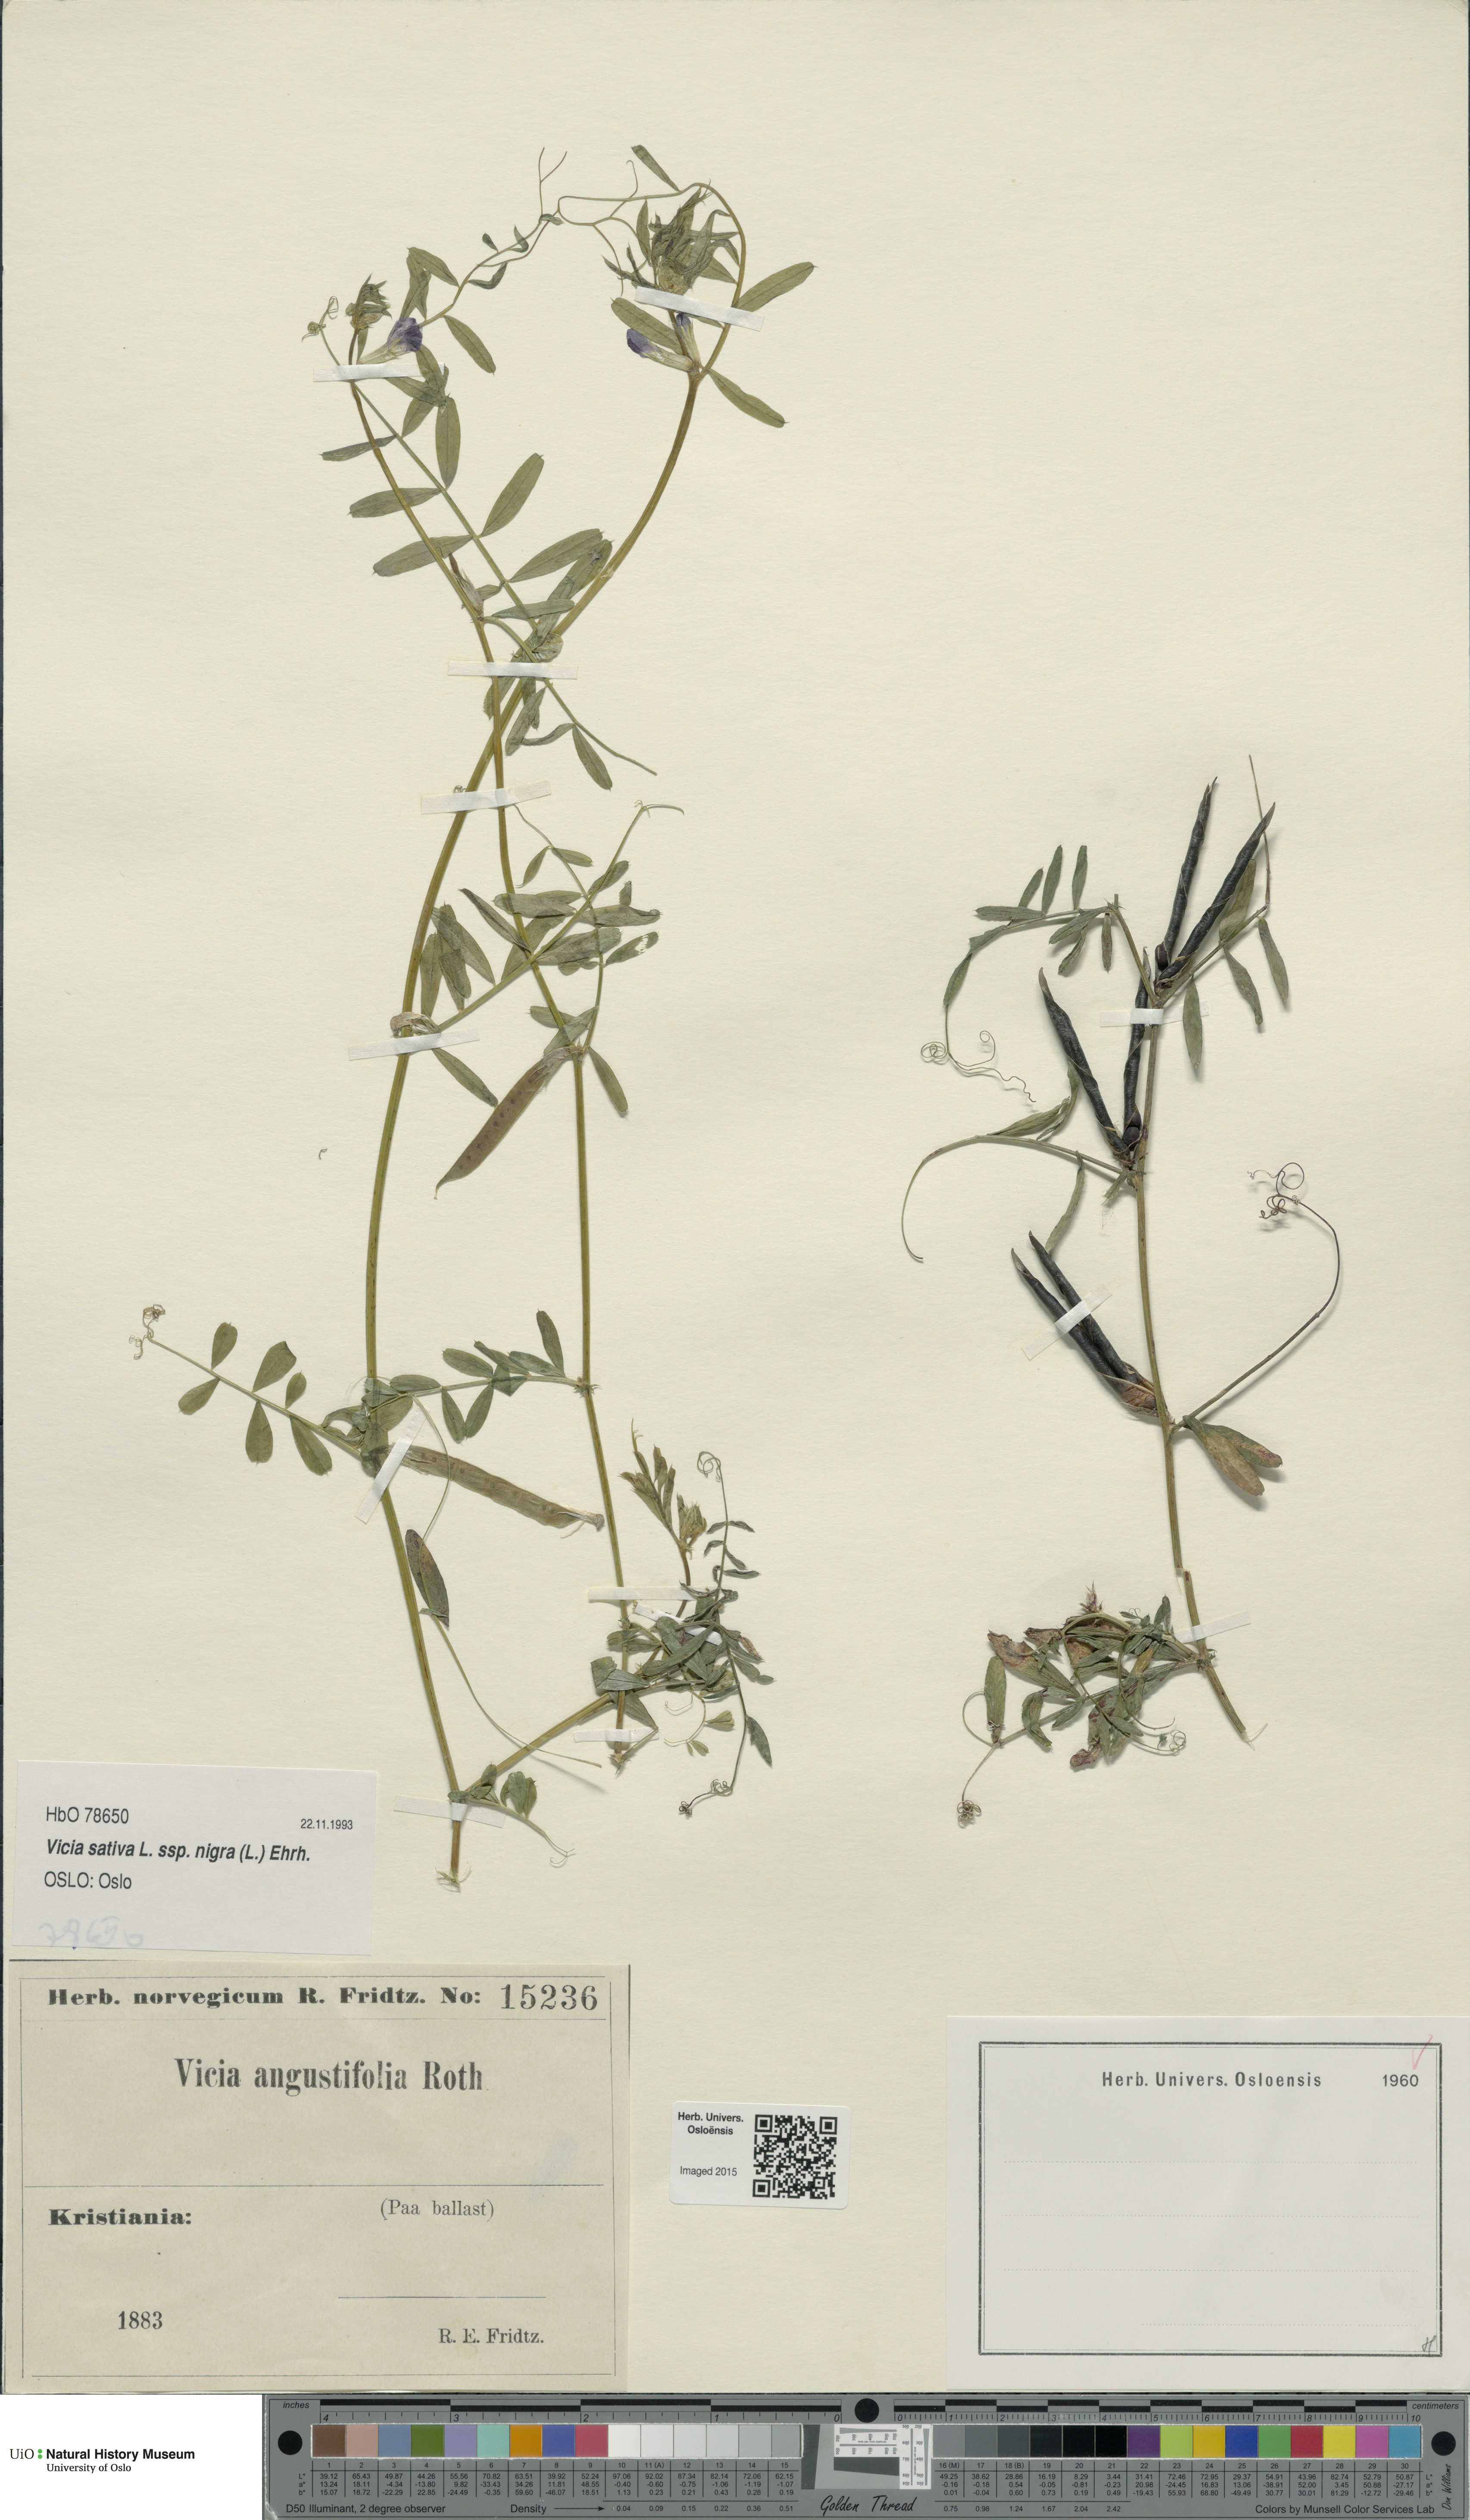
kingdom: Plantae
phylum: Tracheophyta
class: Magnoliopsida
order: Fabales
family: Fabaceae
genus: Vicia
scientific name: Vicia sativa
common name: Garden vetch
